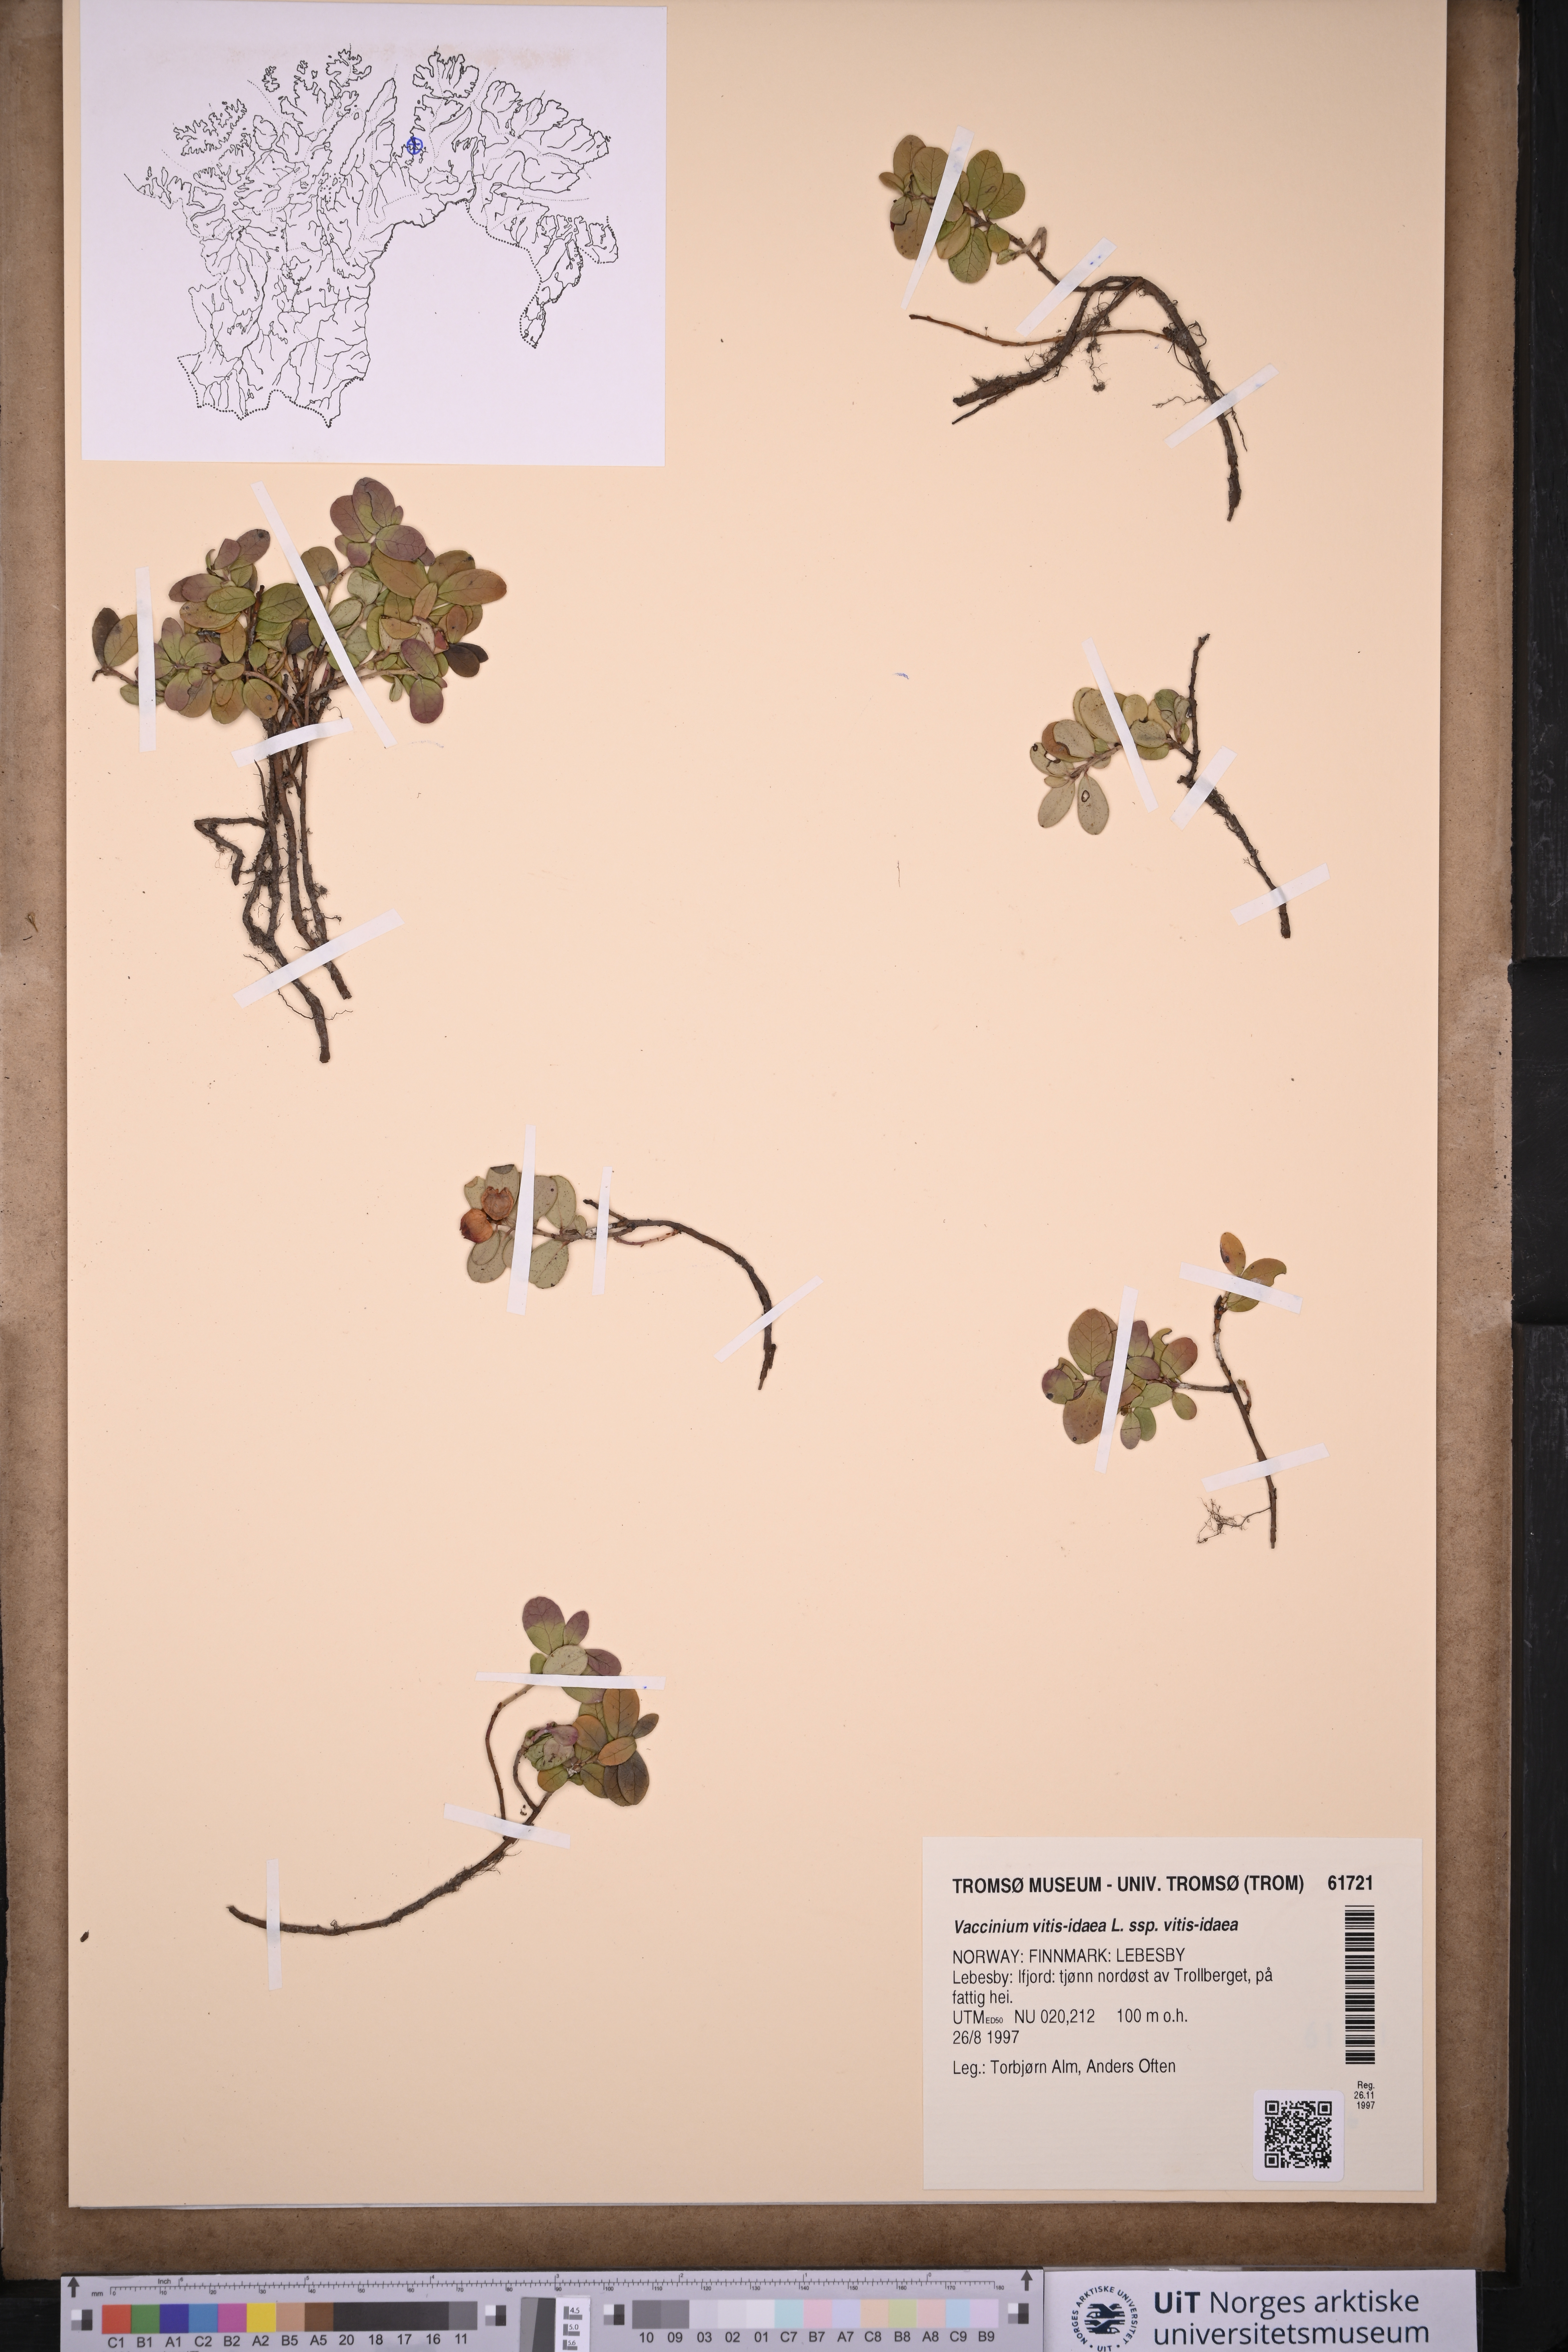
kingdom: Plantae
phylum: Tracheophyta
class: Magnoliopsida
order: Ericales
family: Ericaceae
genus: Vaccinium
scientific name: Vaccinium vitis-idaea
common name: Cowberry
